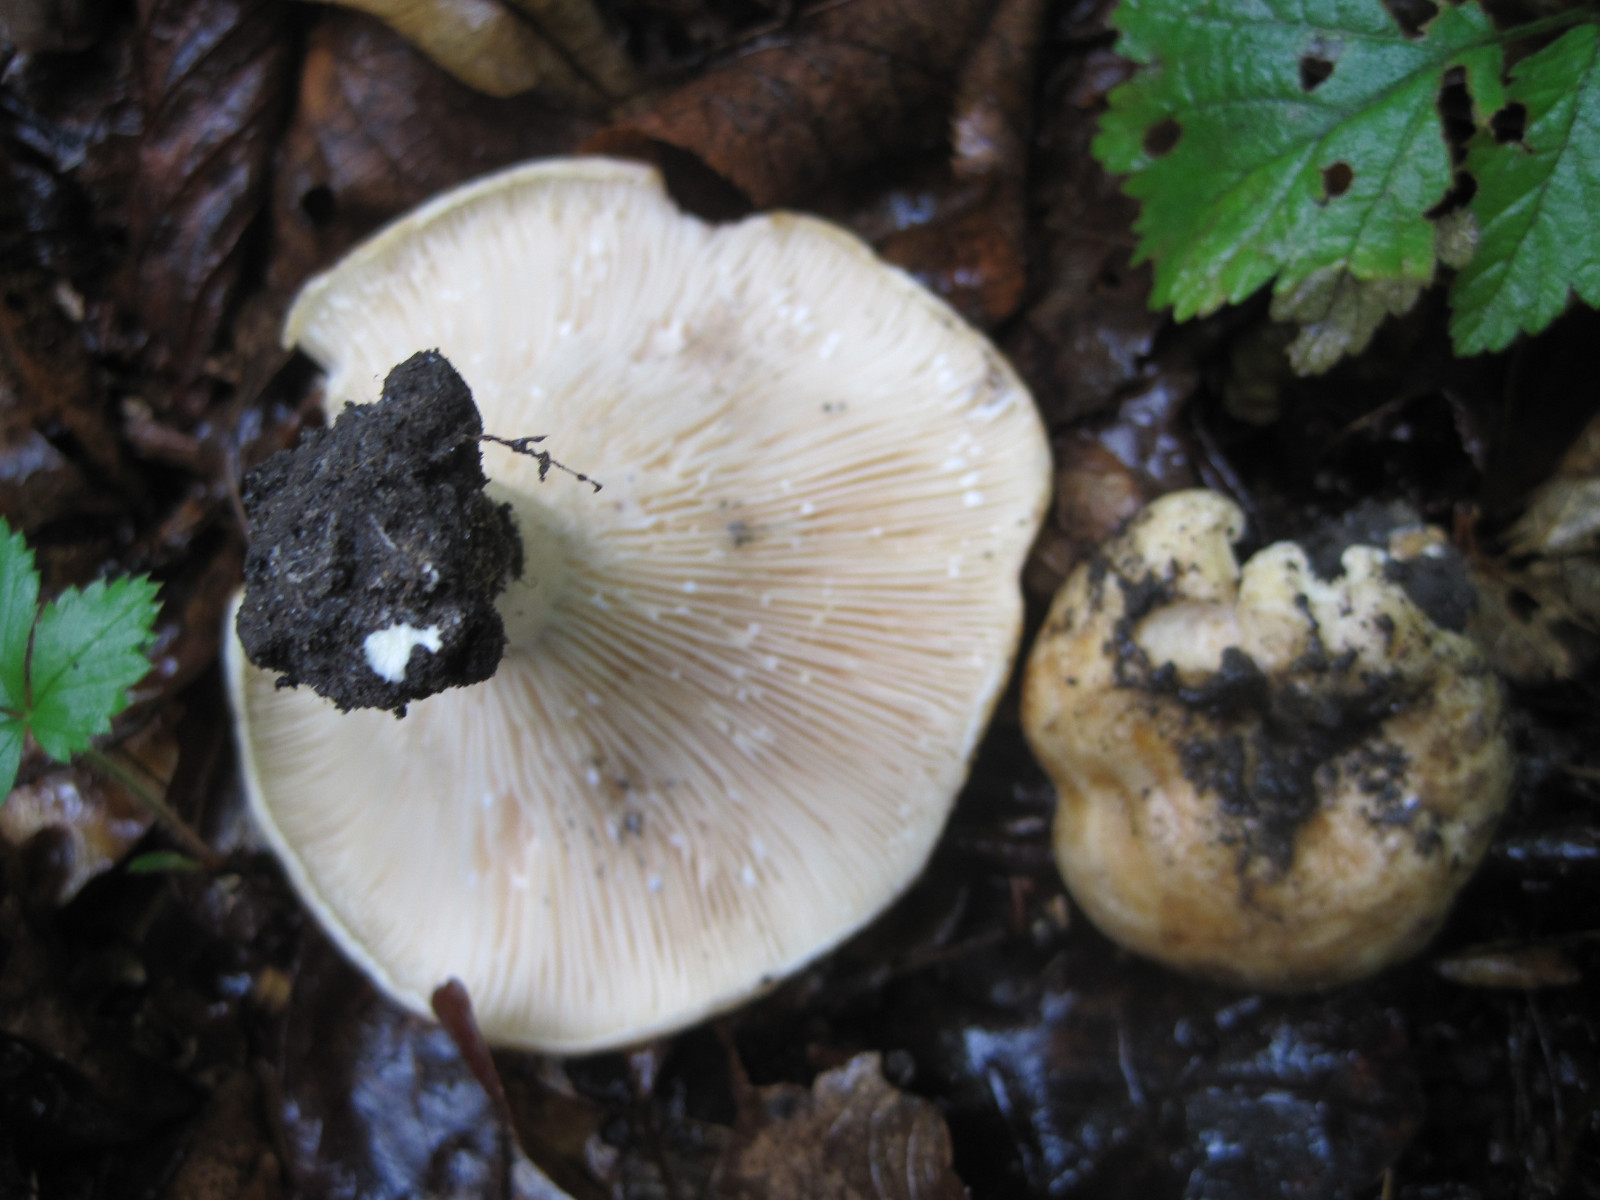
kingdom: Fungi
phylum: Basidiomycota
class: Agaricomycetes
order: Russulales
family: Russulaceae
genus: Lactarius
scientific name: Lactarius pallidus
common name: bleg mælkehat
